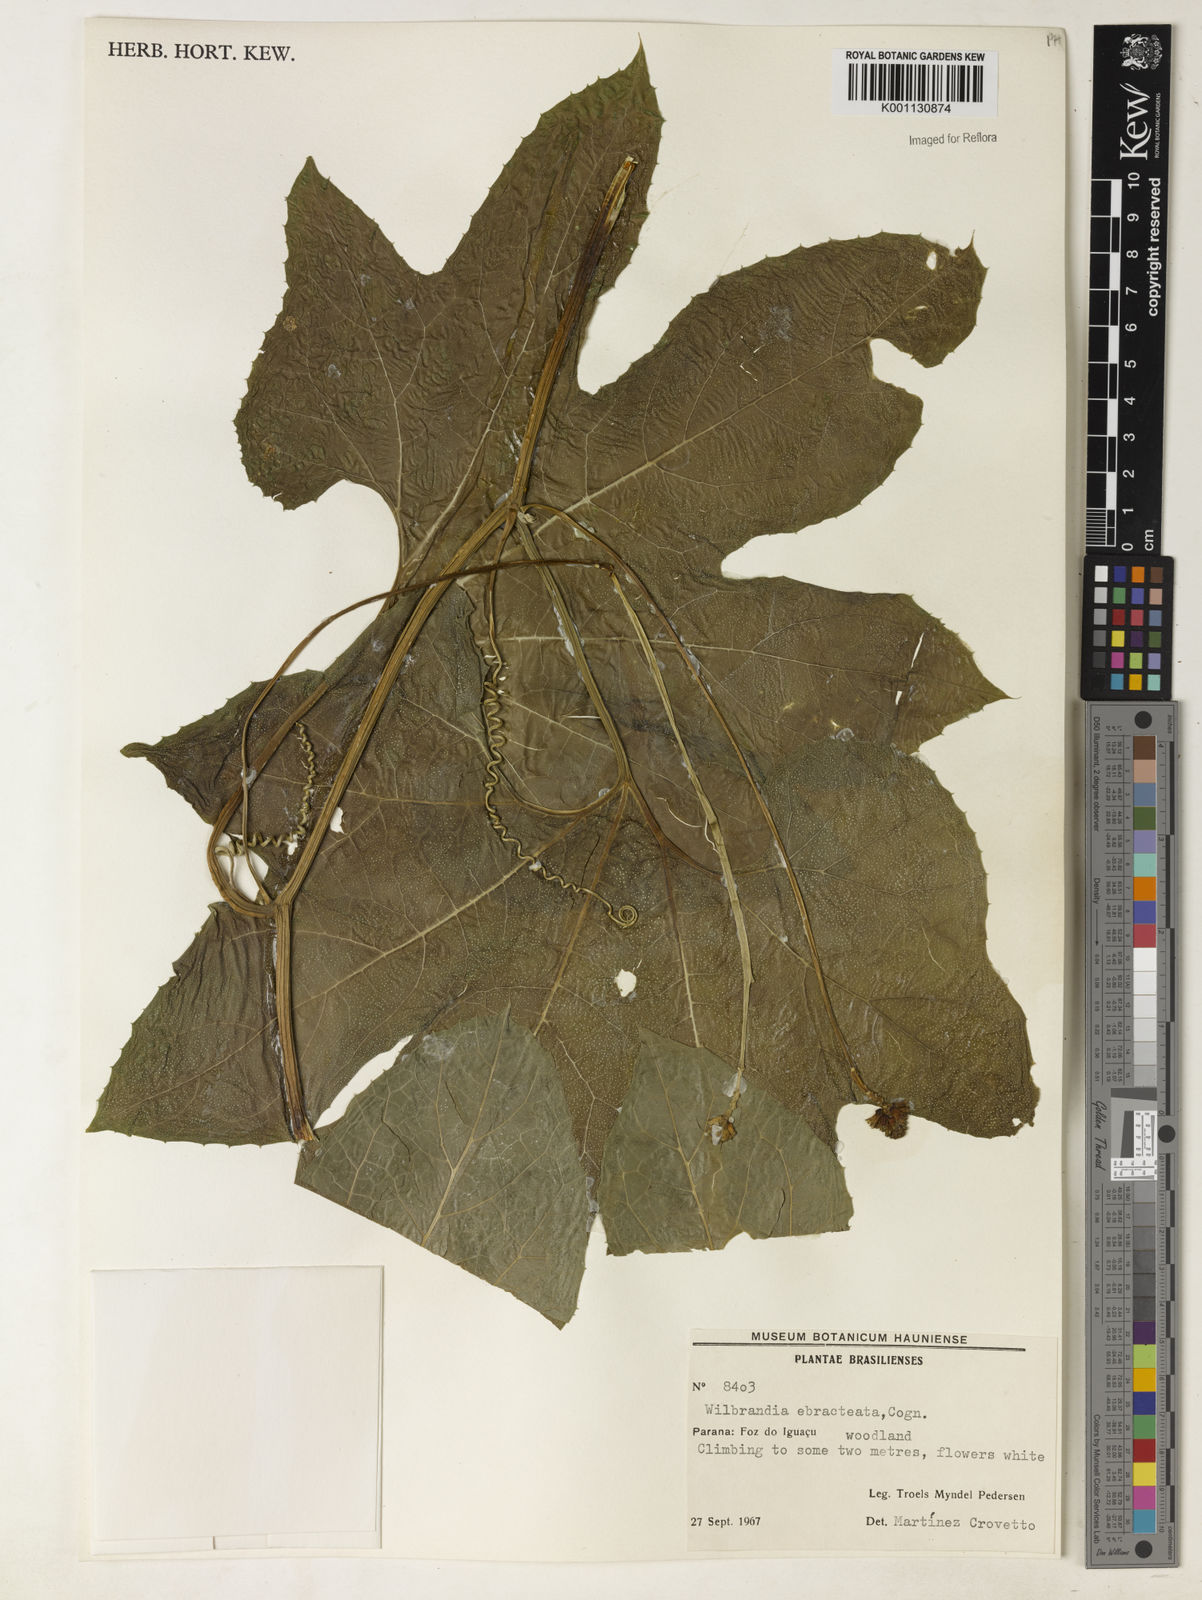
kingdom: Plantae
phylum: Tracheophyta
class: Magnoliopsida
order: Cucurbitales
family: Cucurbitaceae
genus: Wilbrandia
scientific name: Wilbrandia ebracteata
